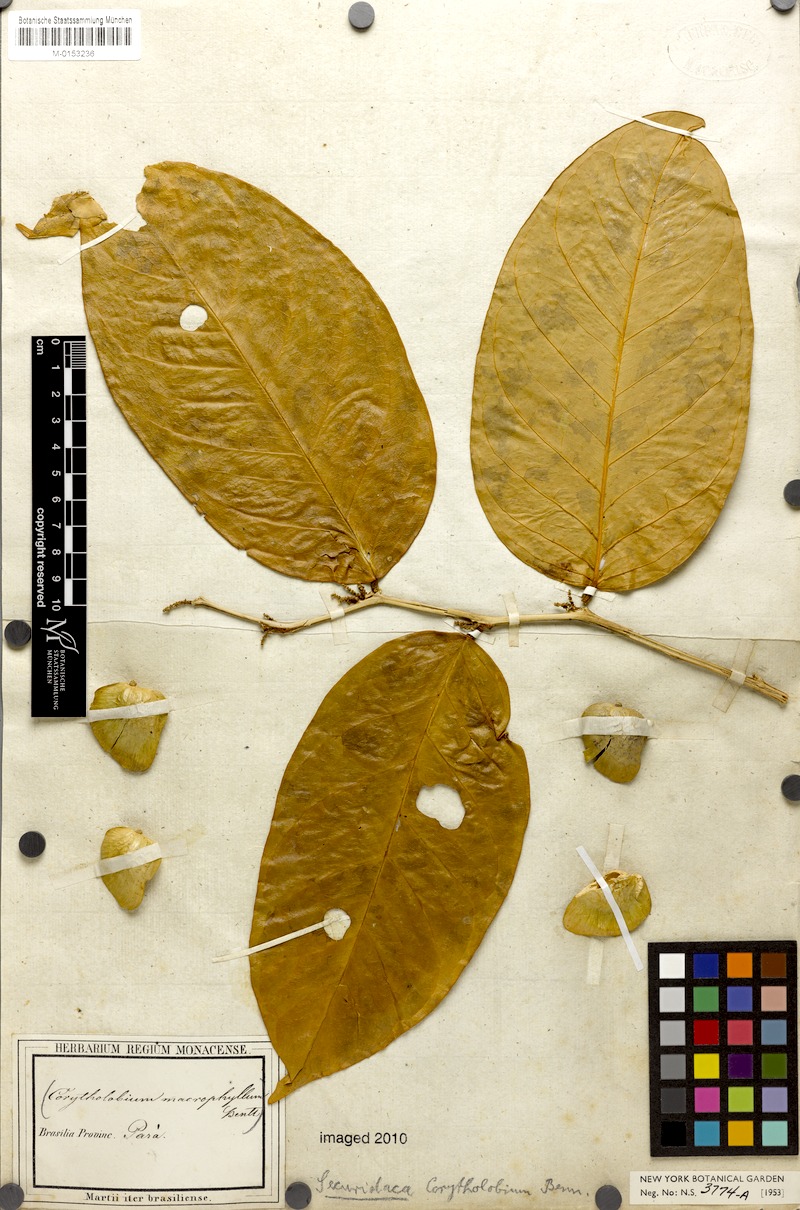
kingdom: Plantae
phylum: Tracheophyta
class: Magnoliopsida
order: Fabales
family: Polygalaceae
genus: Securidaca
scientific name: Securidaca calophylla
